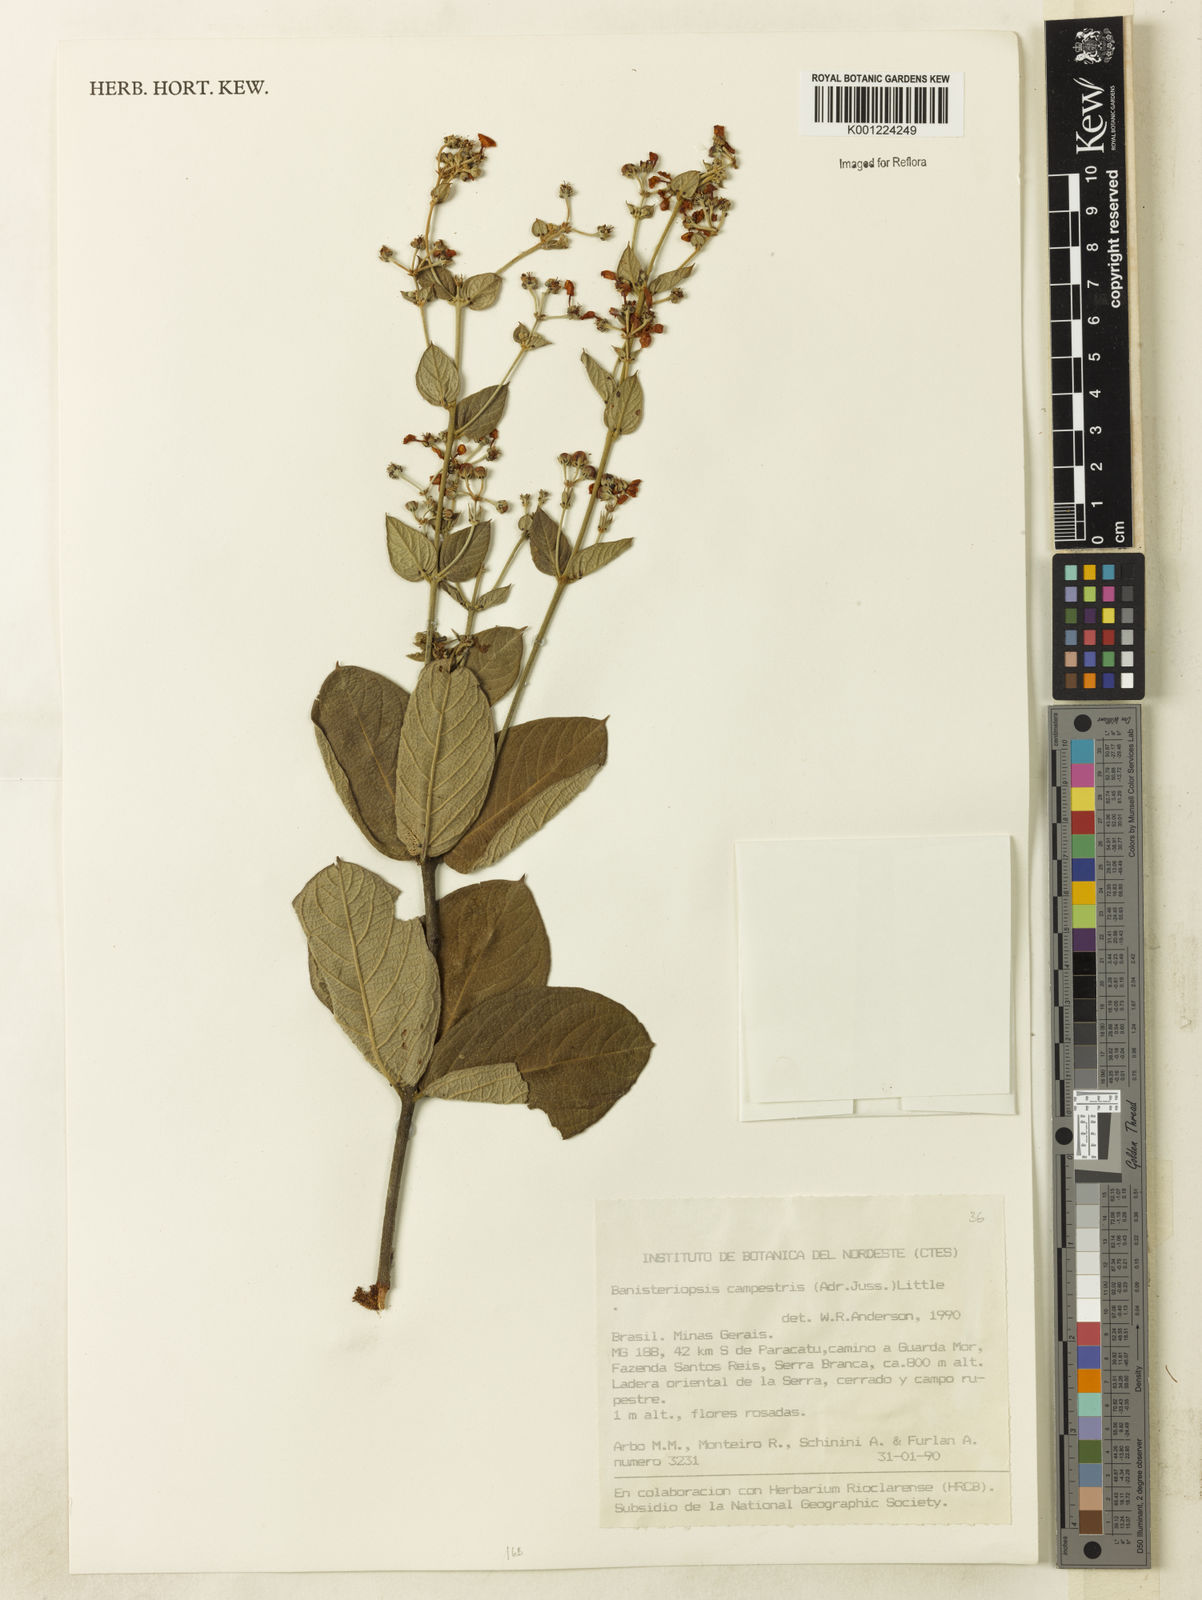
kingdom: Plantae
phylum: Tracheophyta
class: Magnoliopsida
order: Malpighiales
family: Malpighiaceae
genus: Banisteriopsis
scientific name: Banisteriopsis campestris
